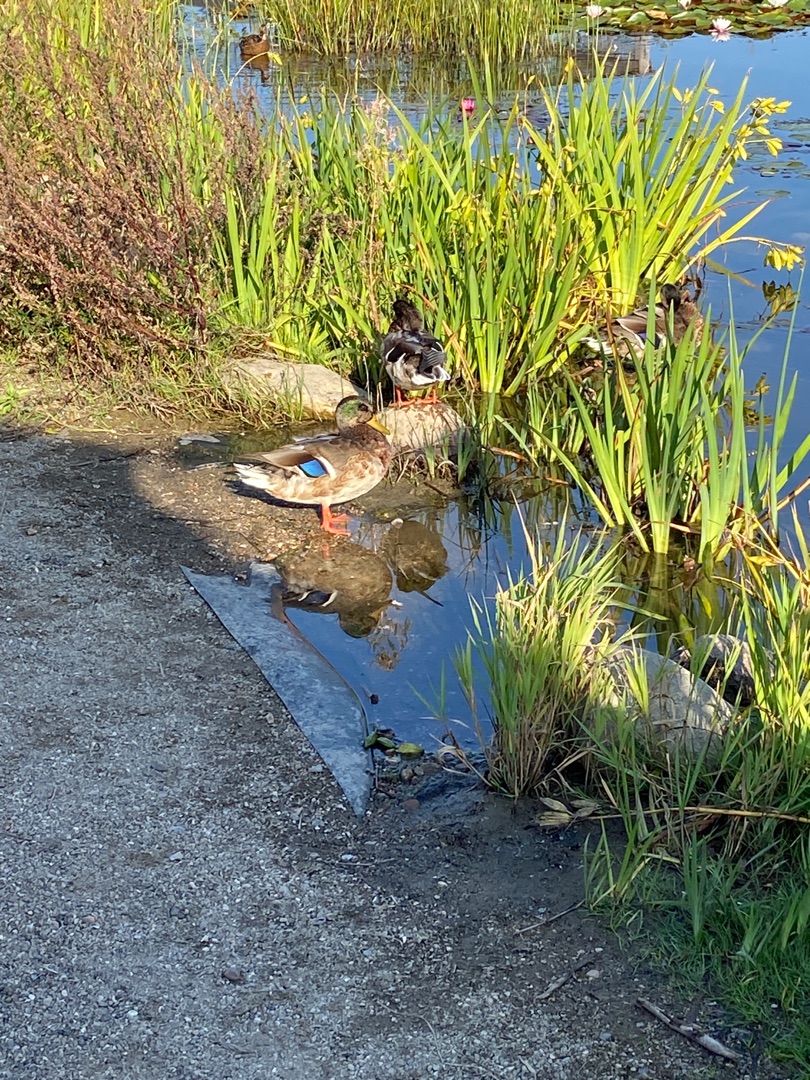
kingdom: Animalia
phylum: Chordata
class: Aves
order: Anseriformes
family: Anatidae
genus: Anas
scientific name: Anas platyrhynchos
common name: Gråand
